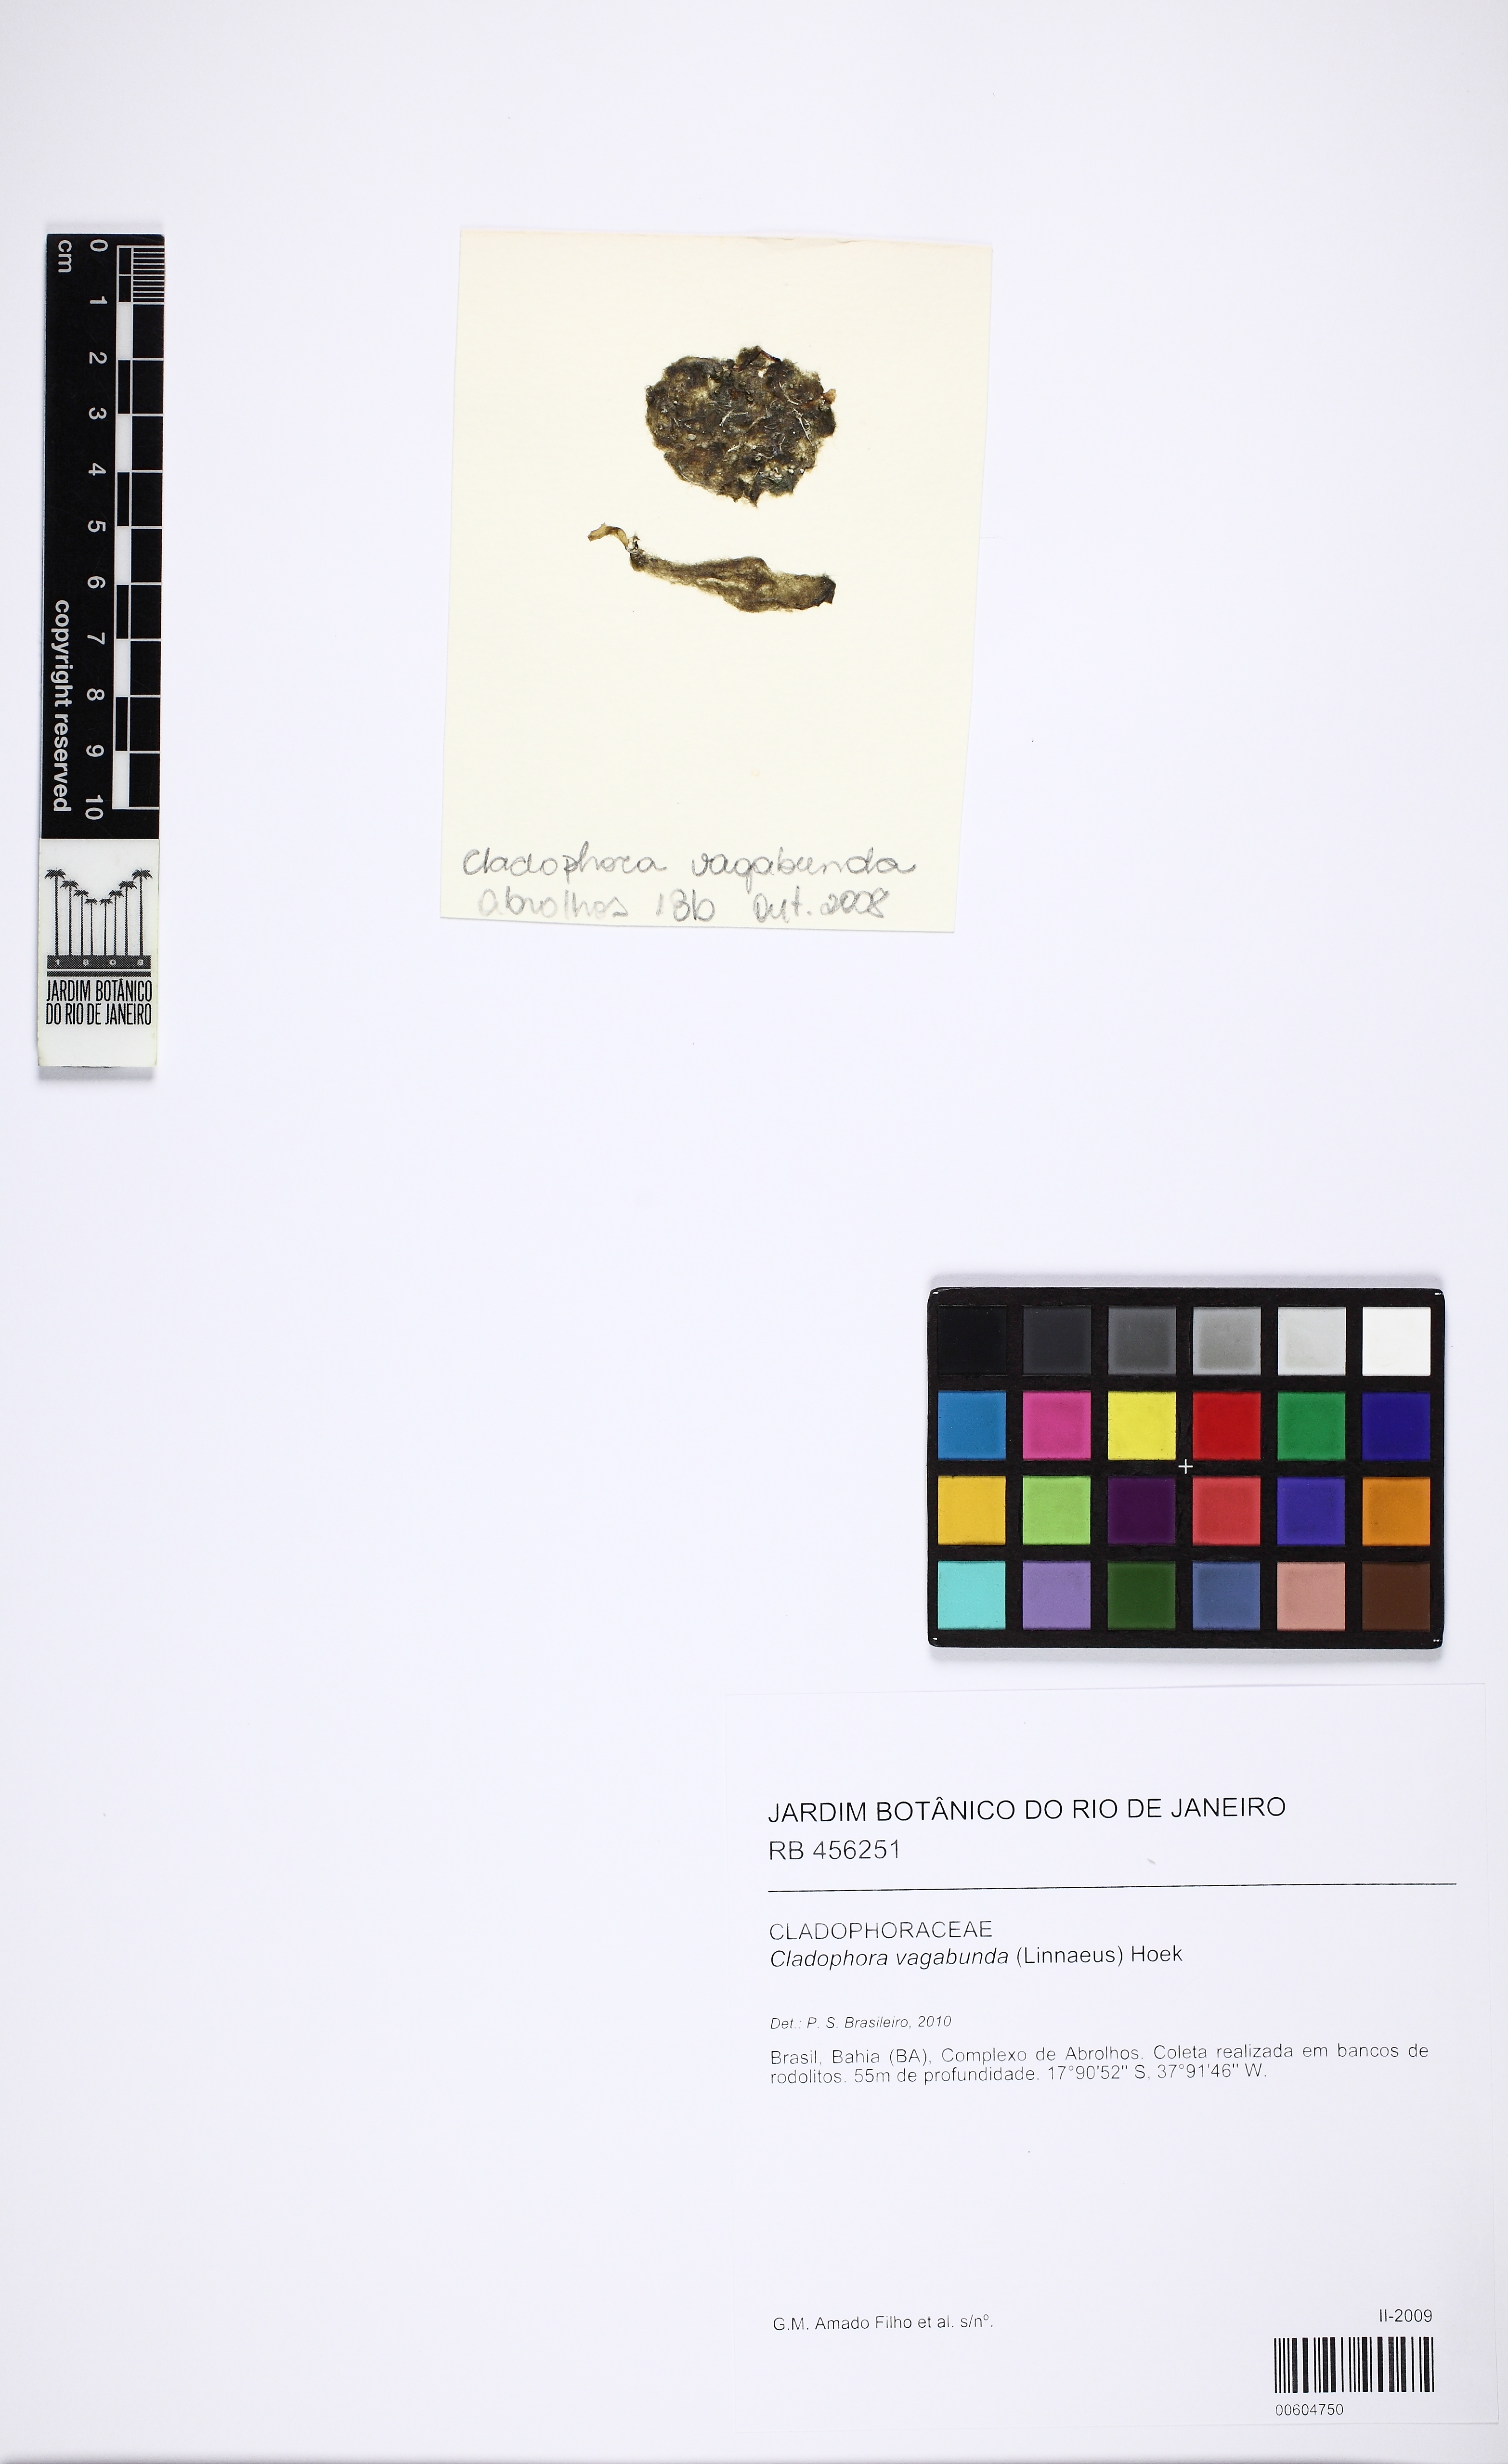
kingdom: Plantae
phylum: Chlorophyta
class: Ulvophyceae
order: Cladophorales
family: Cladophoraceae
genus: Cladophora
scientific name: Cladophora vagabunda
